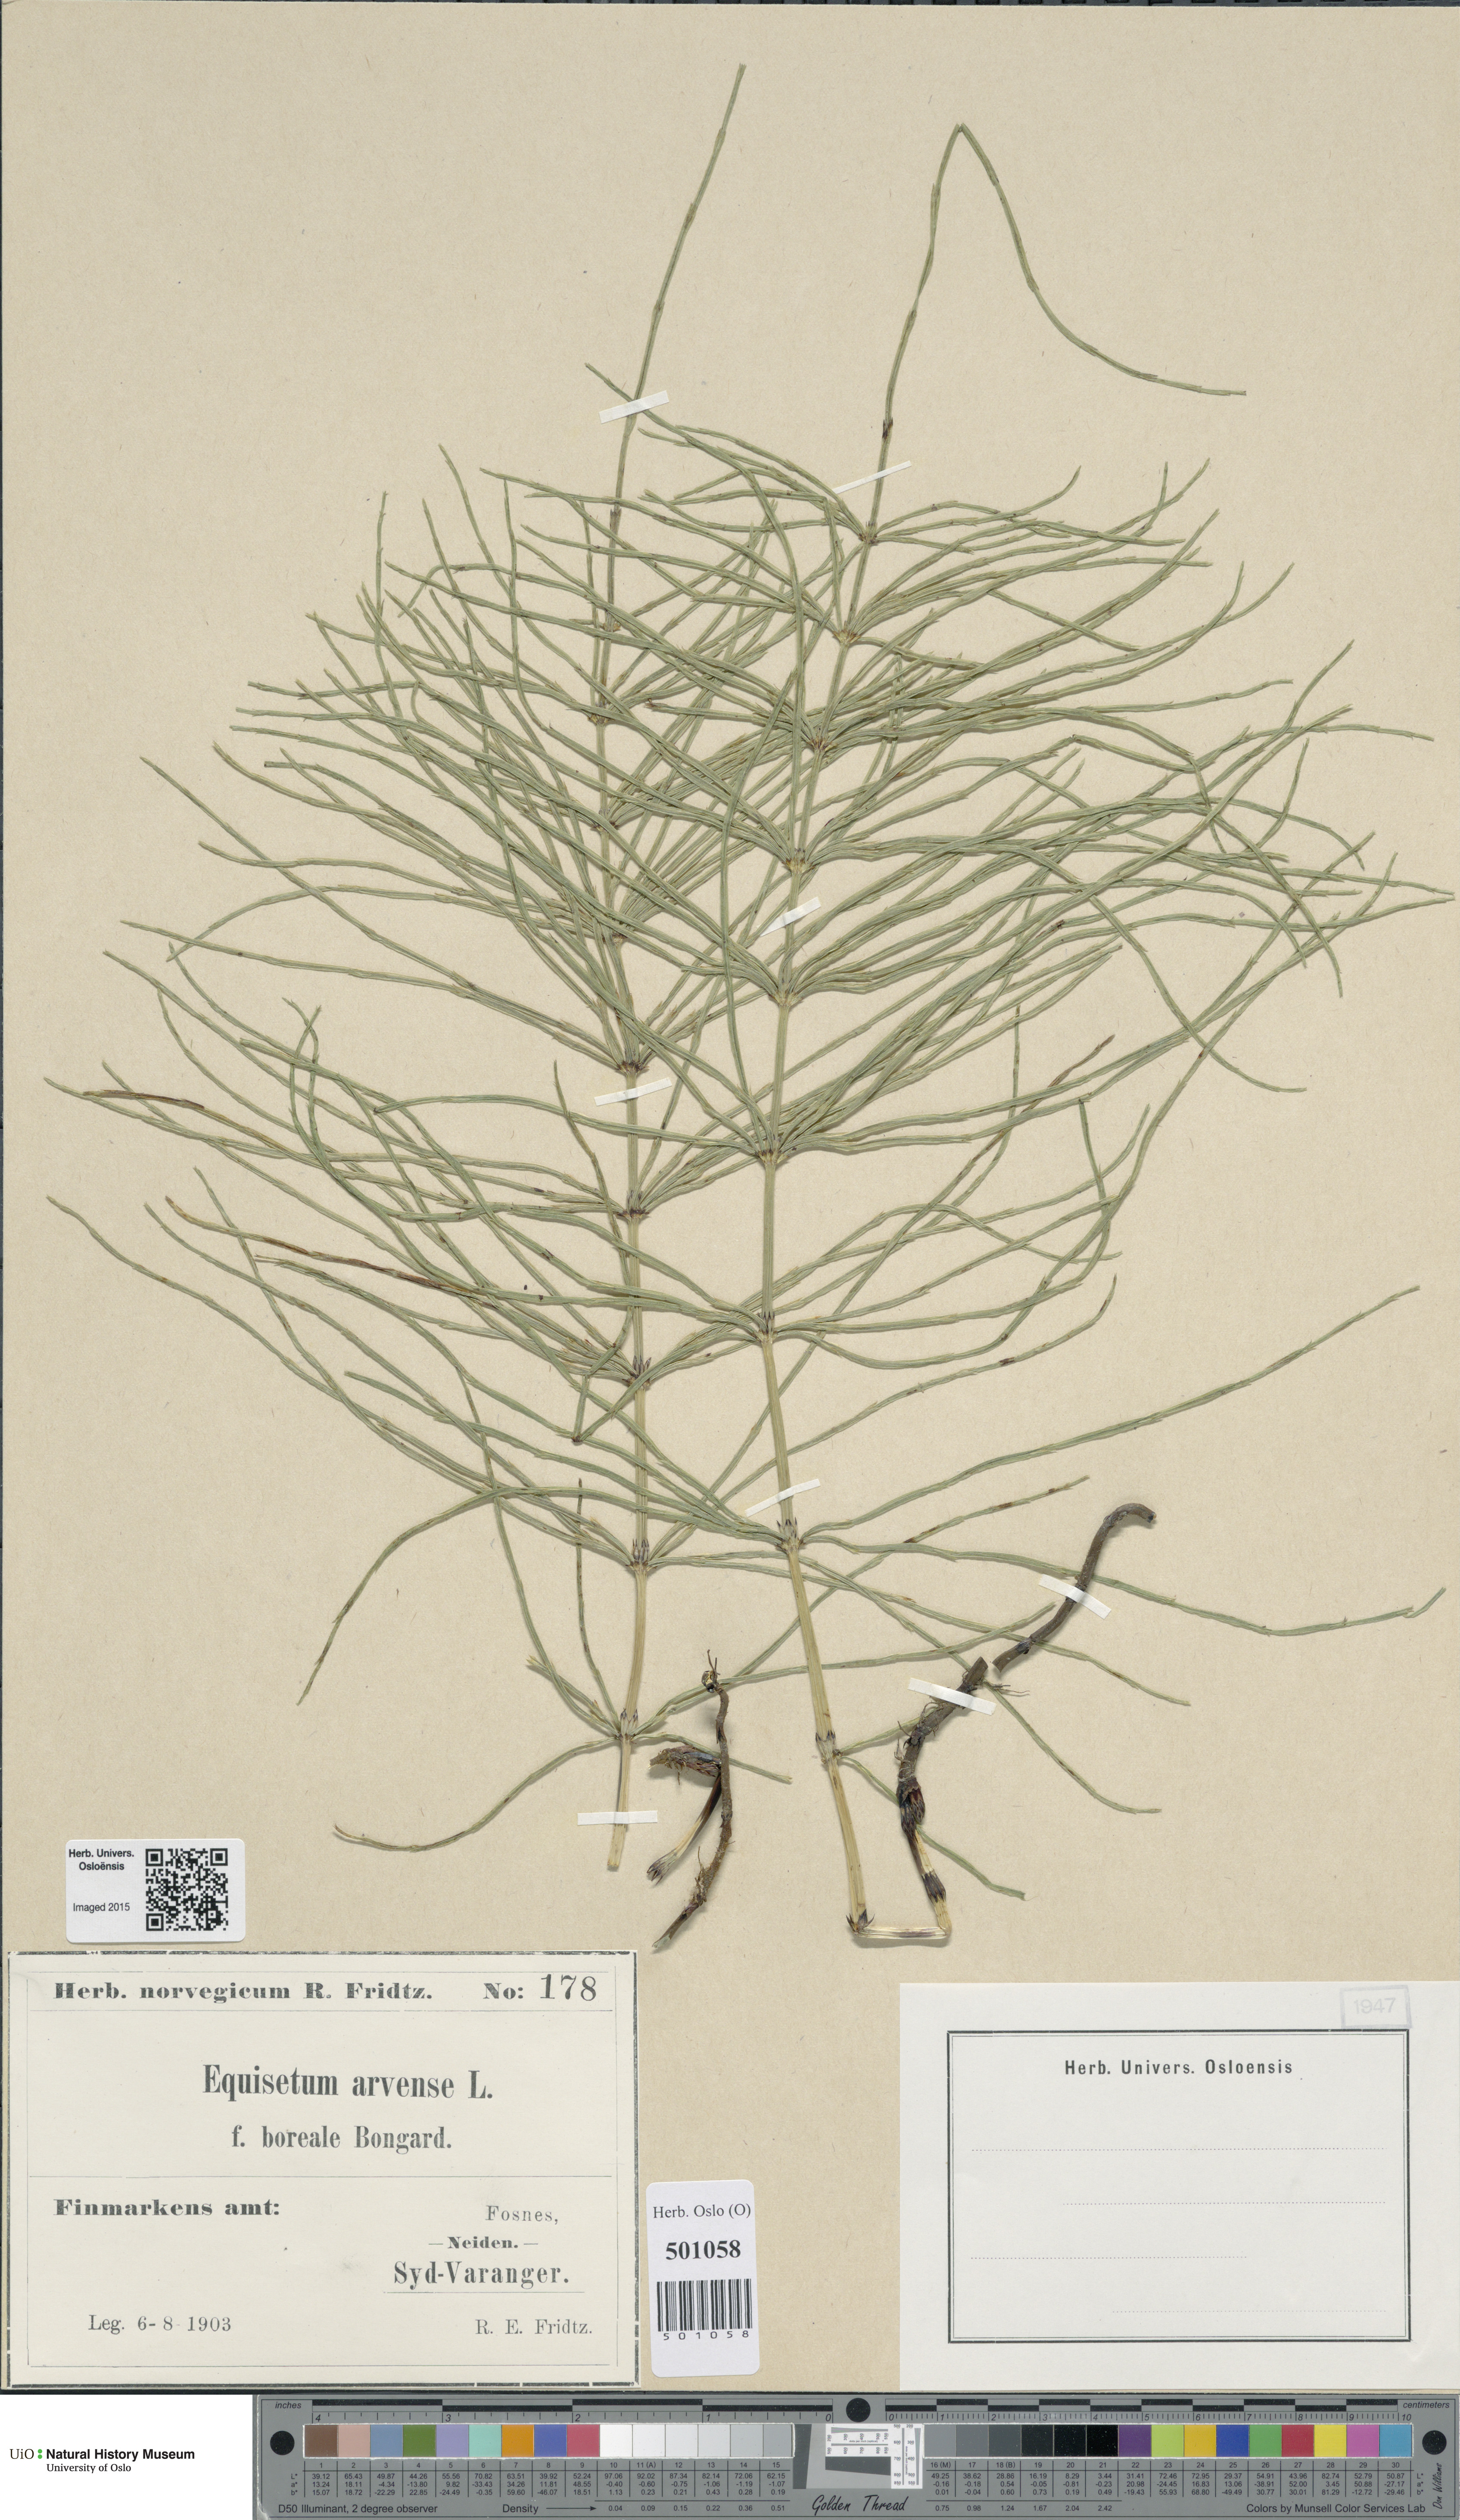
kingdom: Plantae
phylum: Tracheophyta
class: Polypodiopsida
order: Equisetales
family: Equisetaceae
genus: Equisetum
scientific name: Equisetum arvense
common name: Field horsetail
